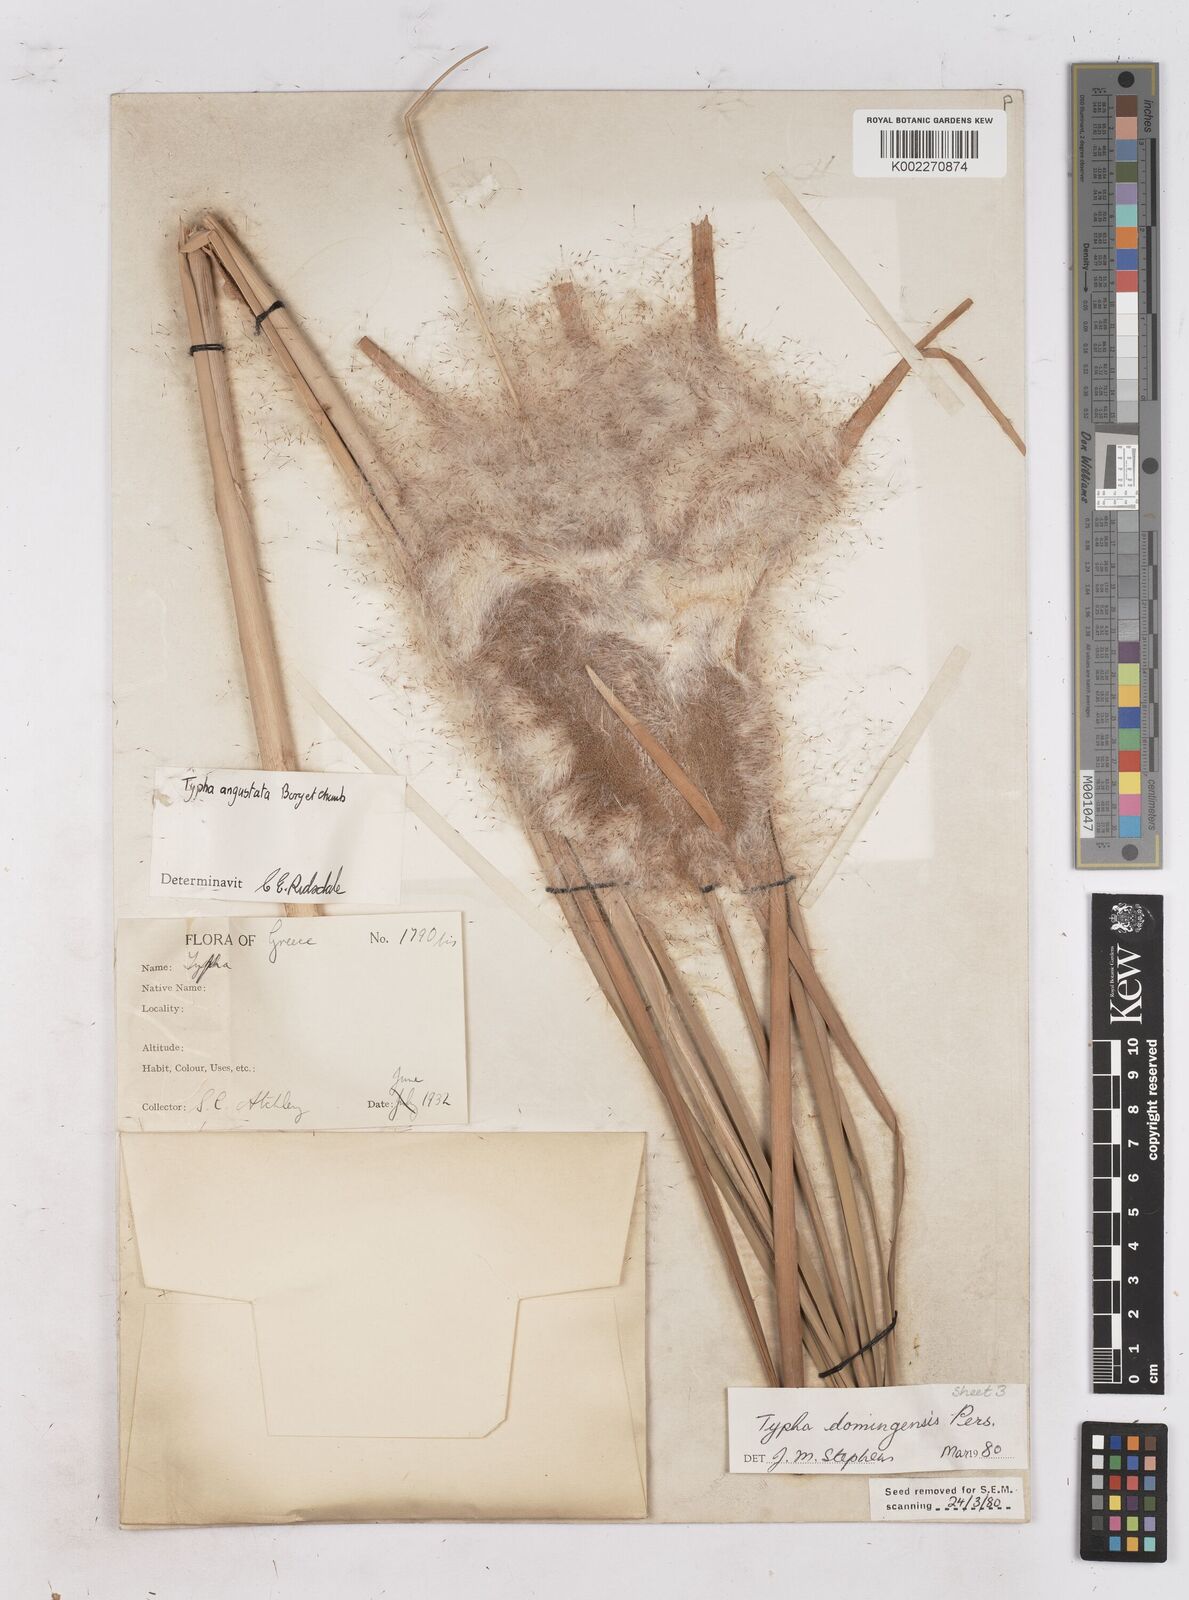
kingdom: Plantae
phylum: Tracheophyta
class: Liliopsida
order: Poales
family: Typhaceae
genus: Typha
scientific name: Typha domingensis
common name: Southern cattail
